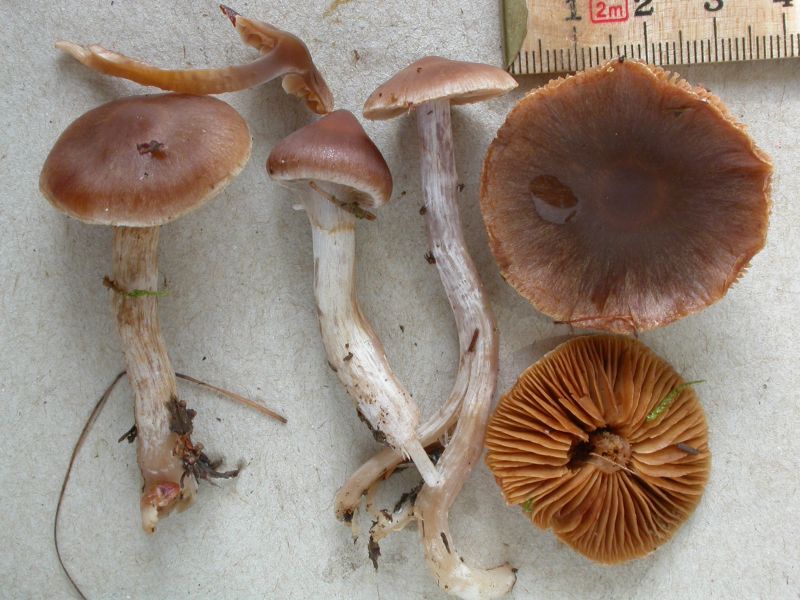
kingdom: Fungi
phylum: Basidiomycota
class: Agaricomycetes
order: Agaricales
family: Cortinariaceae
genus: Cortinarius
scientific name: Cortinarius kauffmanianus
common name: plantage-slørhat
